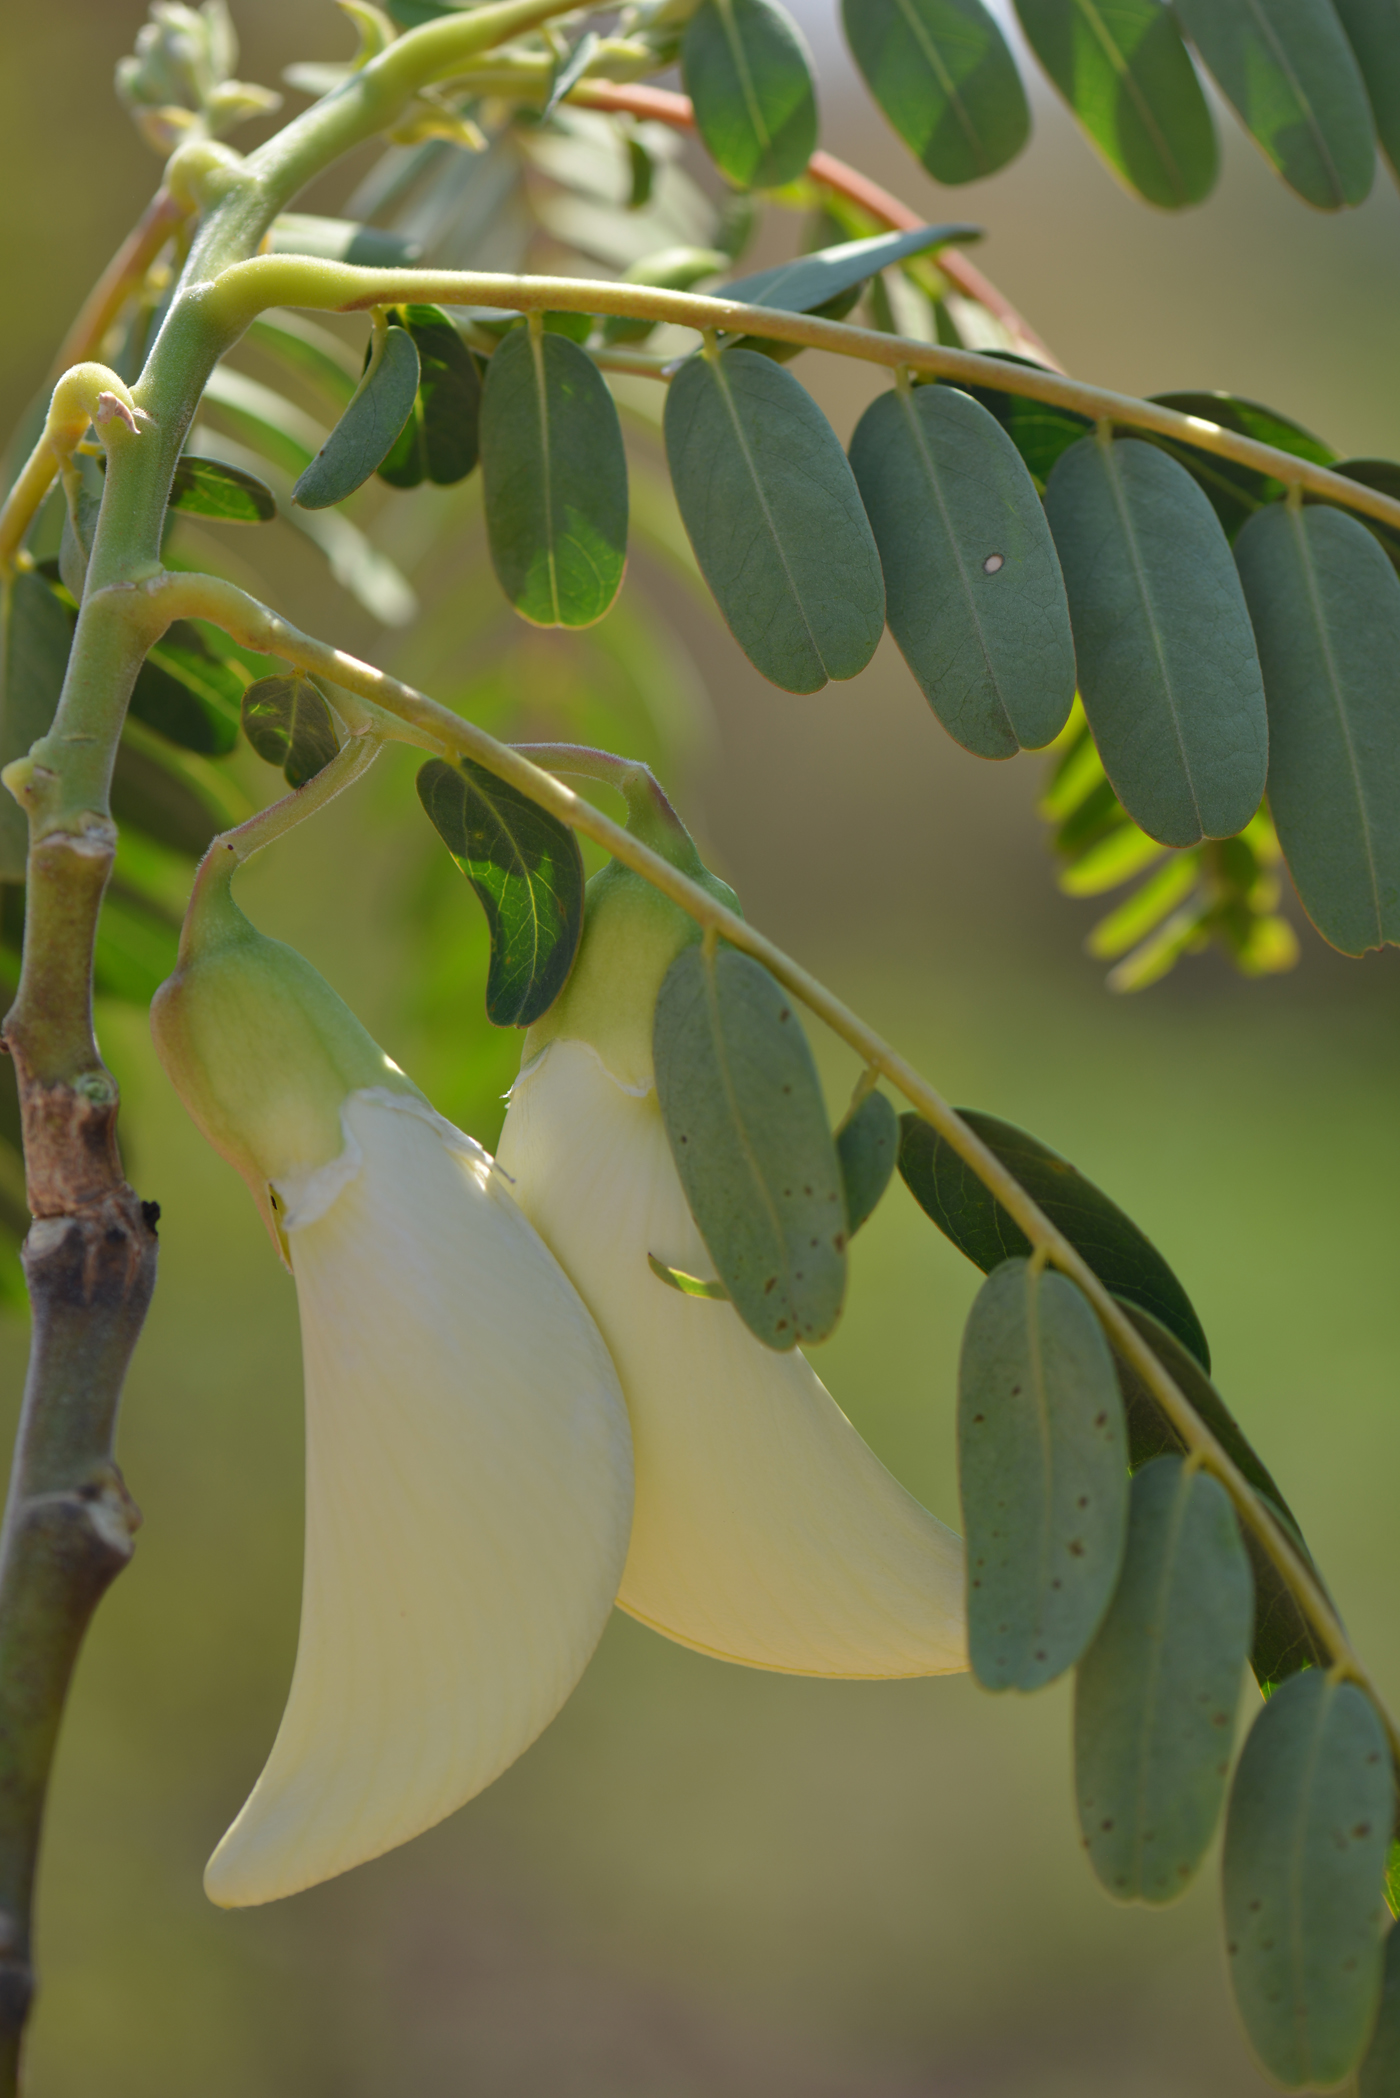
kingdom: Plantae
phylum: Tracheophyta
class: Magnoliopsida
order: Fabales
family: Fabaceae
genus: Sesbania
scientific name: Sesbania grandiflora
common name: Vegetable-hummingbird
